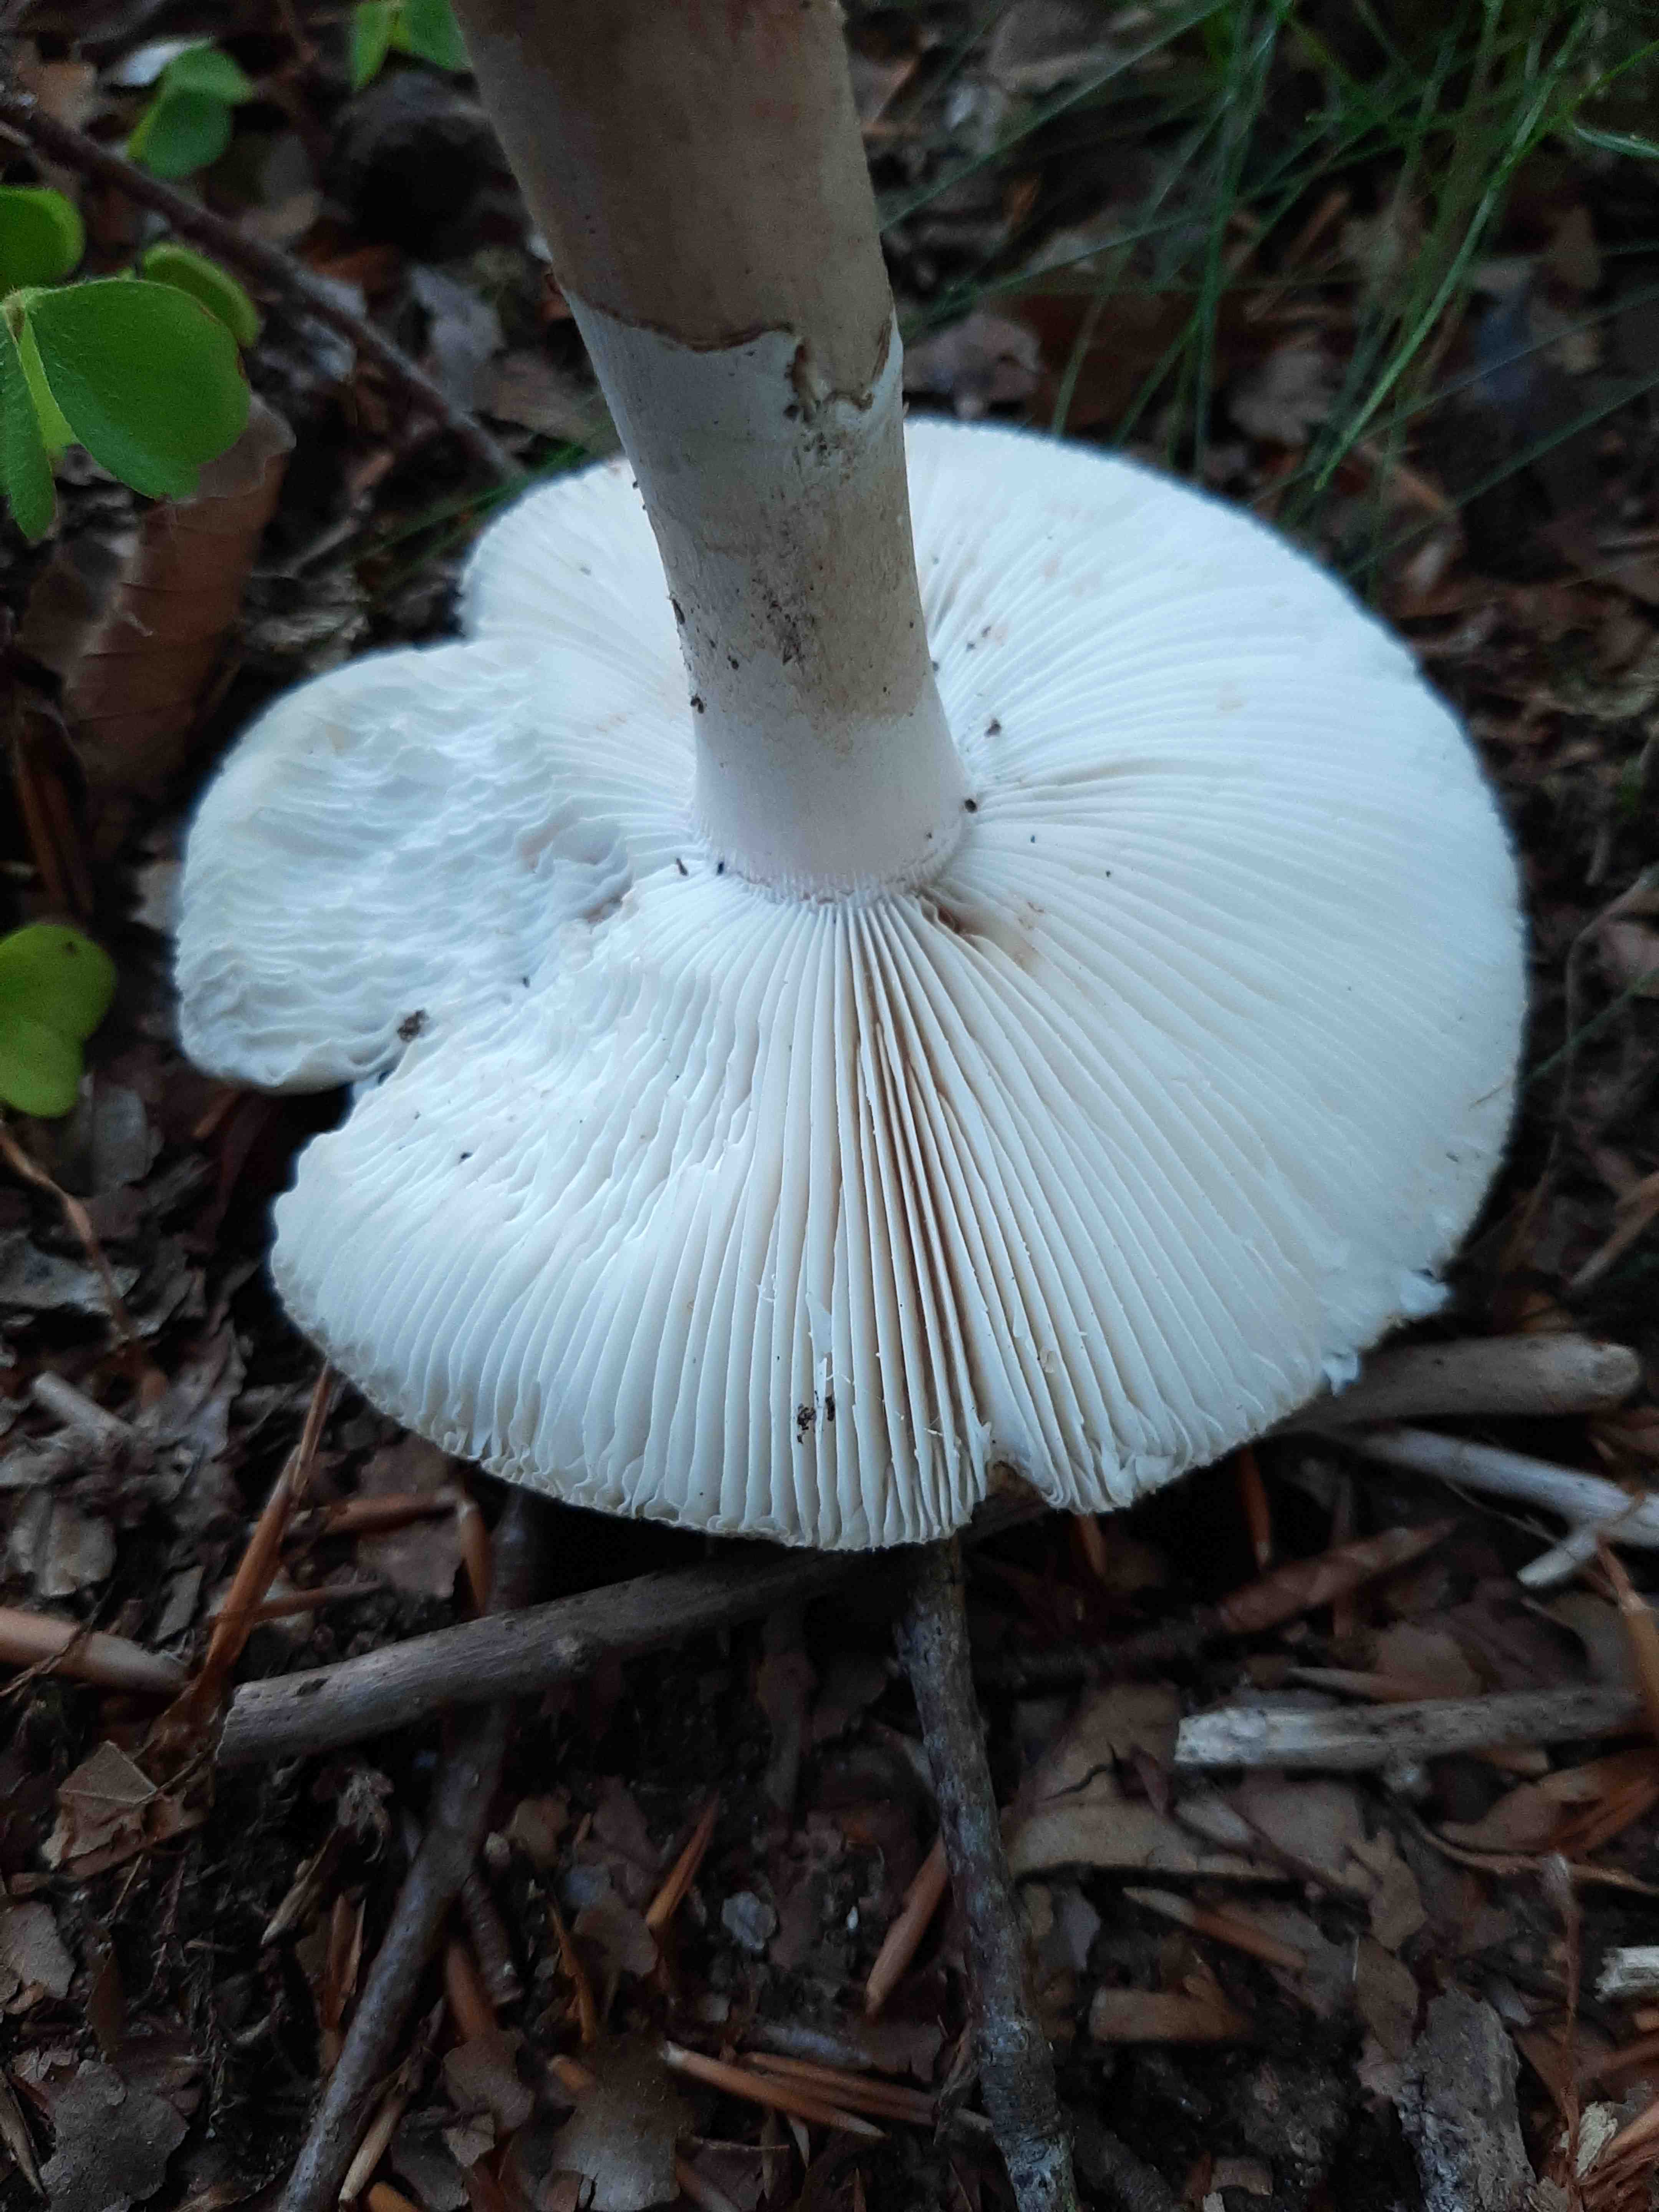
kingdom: Fungi
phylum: Basidiomycota
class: Agaricomycetes
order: Agaricales
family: Amanitaceae
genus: Amanita
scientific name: Amanita rubescens
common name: rødmende fluesvamp
